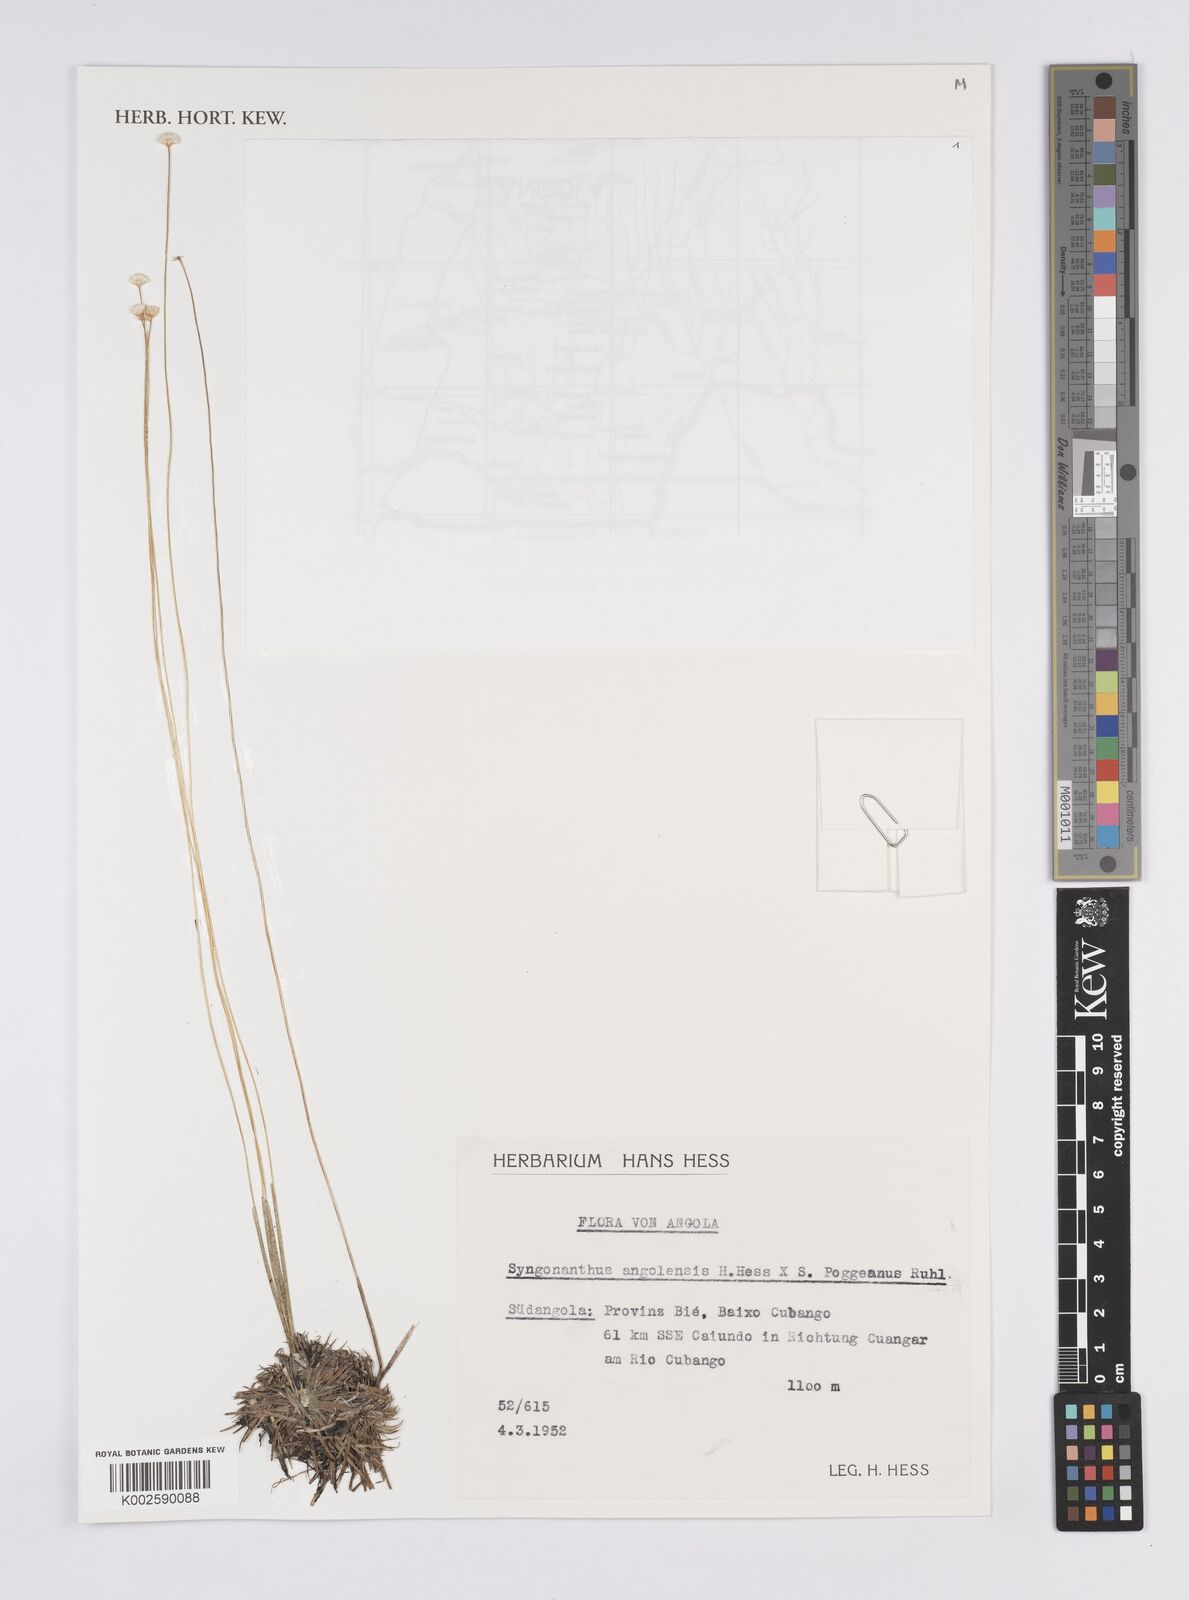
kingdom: Plantae
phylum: Tracheophyta
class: Liliopsida
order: Poales
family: Eriocaulaceae
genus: Syngonanthus
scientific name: Syngonanthus angolensis
